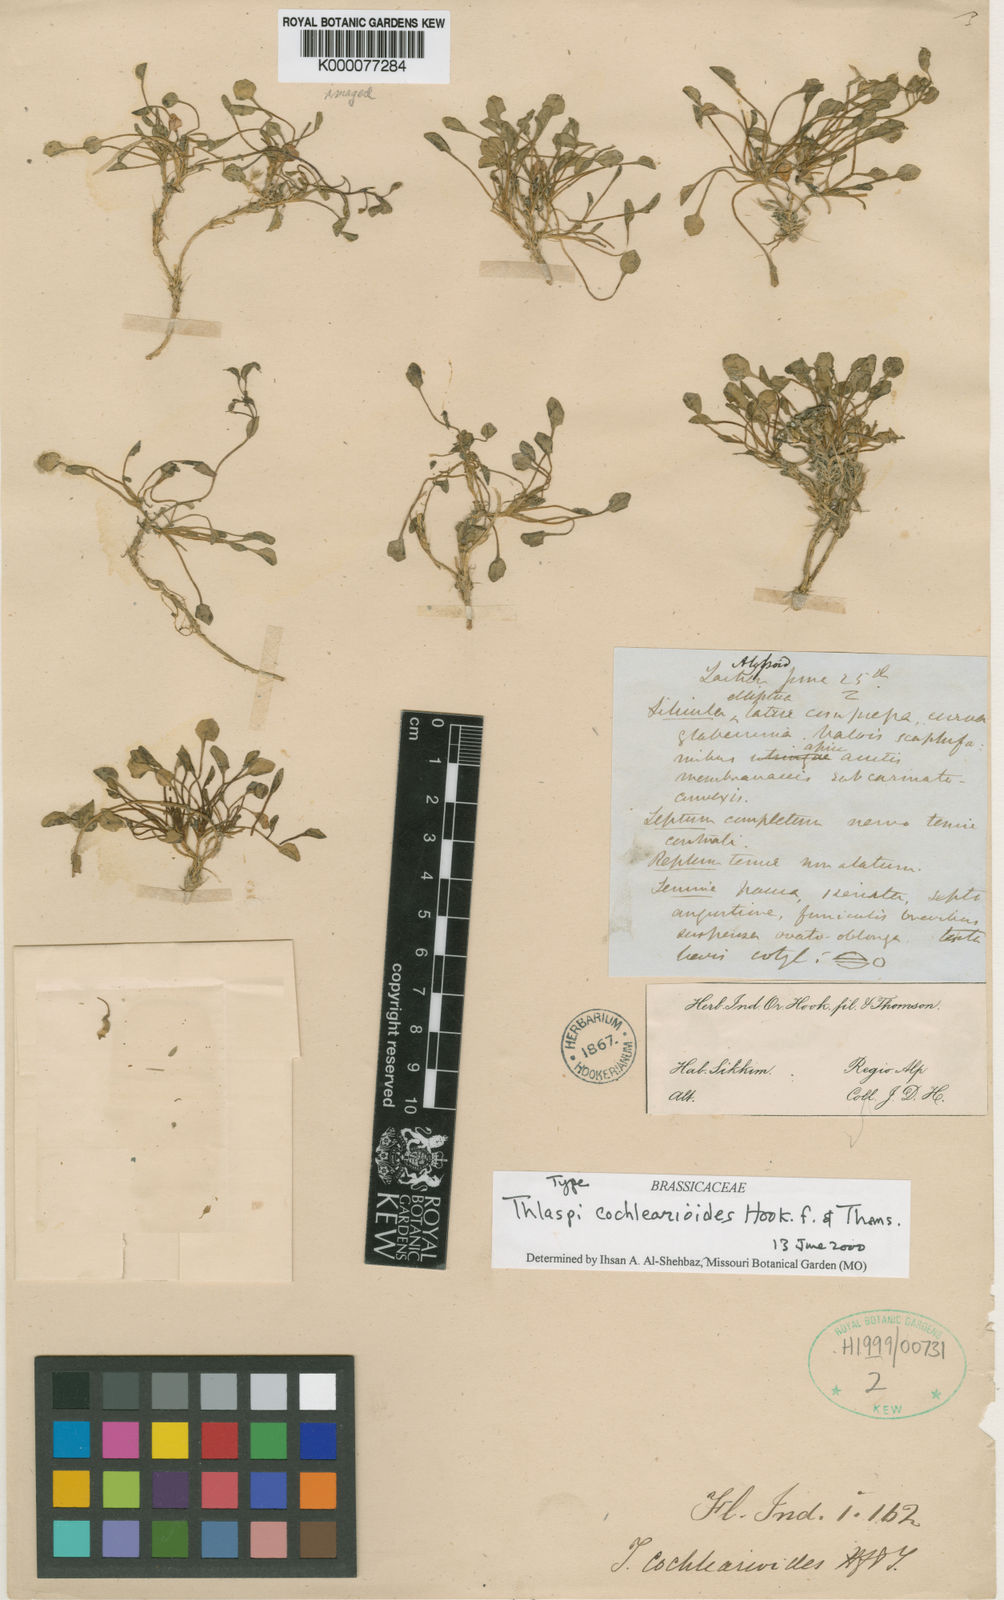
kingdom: Plantae
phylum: Tracheophyta
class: Magnoliopsida
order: Brassicales
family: Brassicaceae
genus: Noccaea
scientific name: Noccaea cochlearioides
